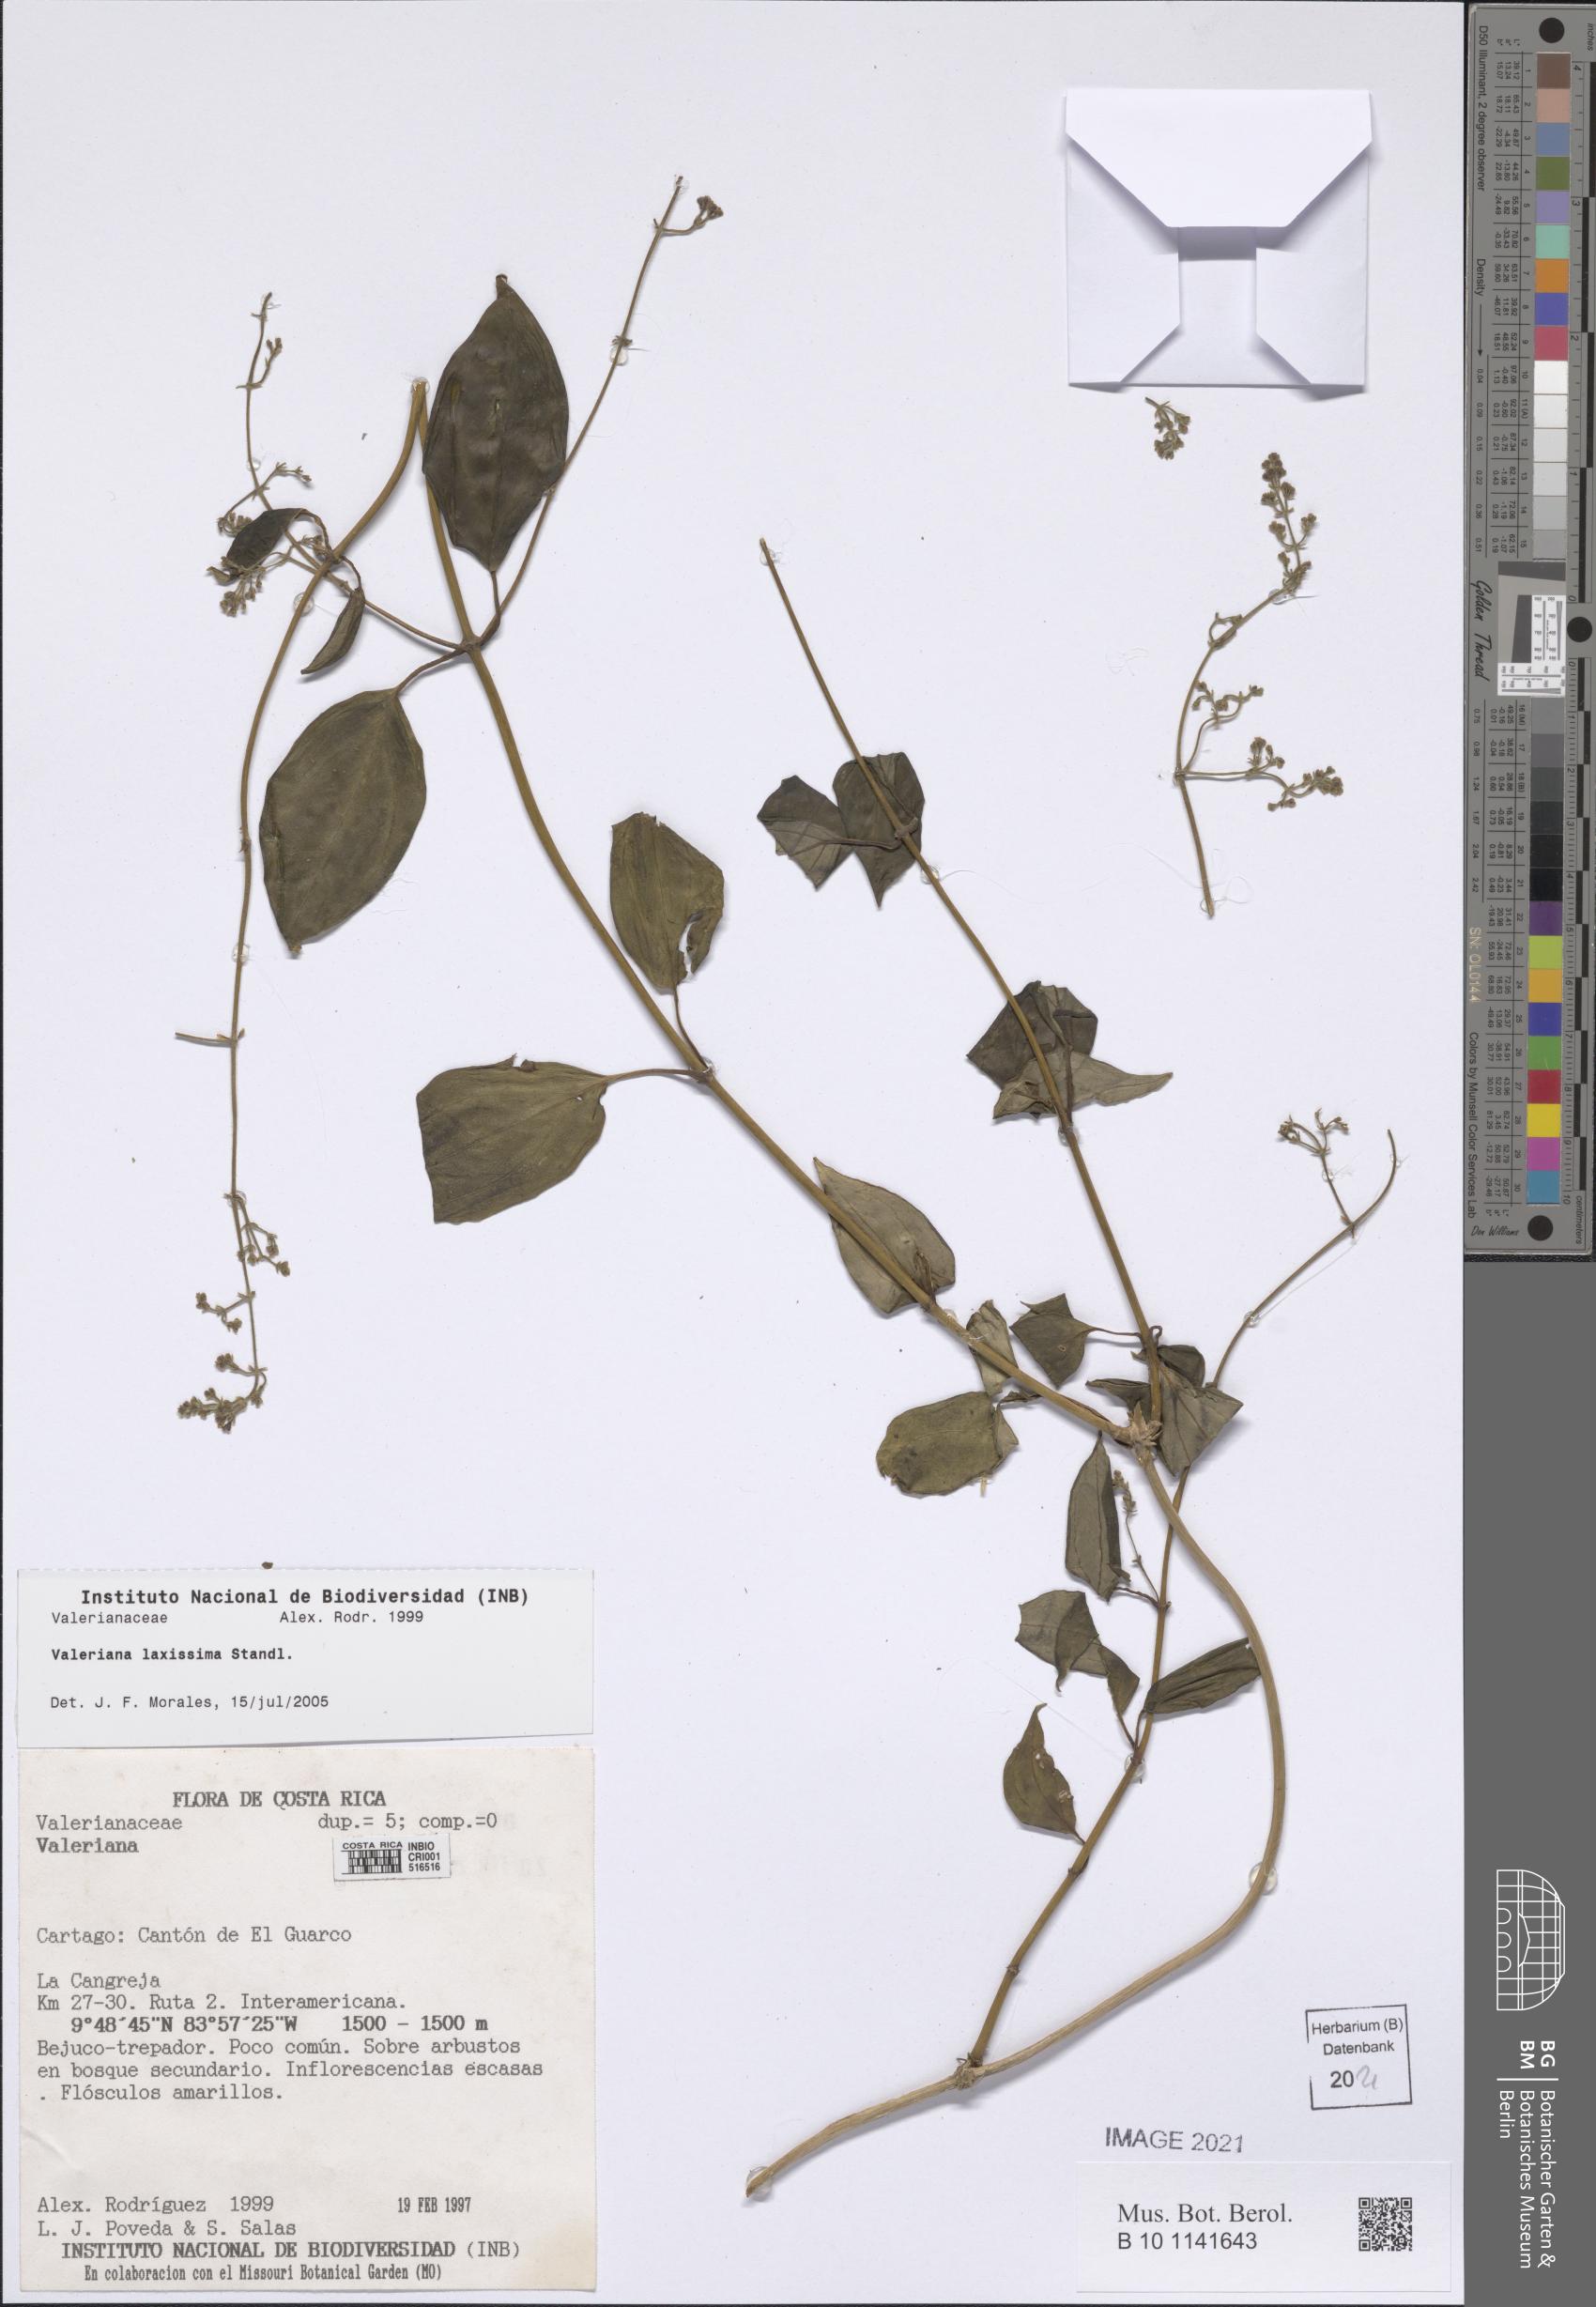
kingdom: Plantae
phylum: Tracheophyta
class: Magnoliopsida
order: Dipsacales
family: Caprifoliaceae
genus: Valeriana
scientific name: Valeriana laxissima
